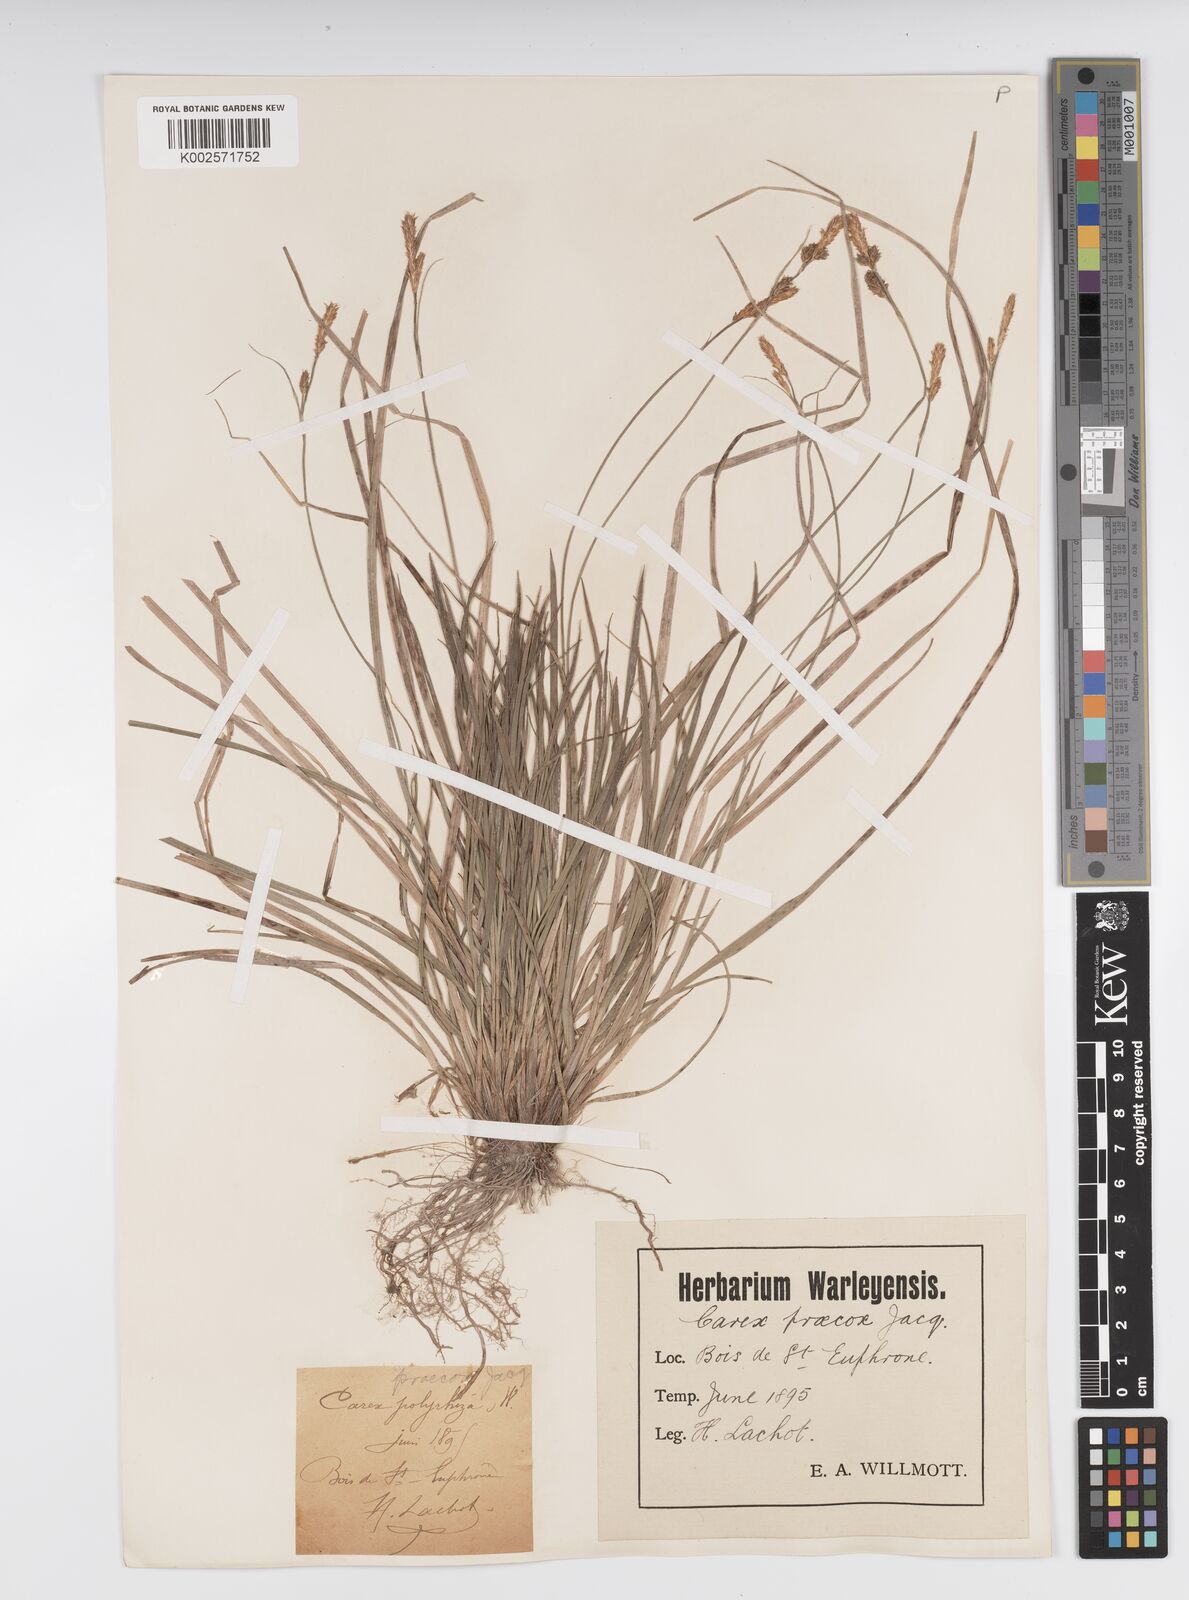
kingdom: Plantae
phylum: Tracheophyta
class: Liliopsida
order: Poales
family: Cyperaceae
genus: Carex
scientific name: Carex caryophyllea
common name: Spring sedge
